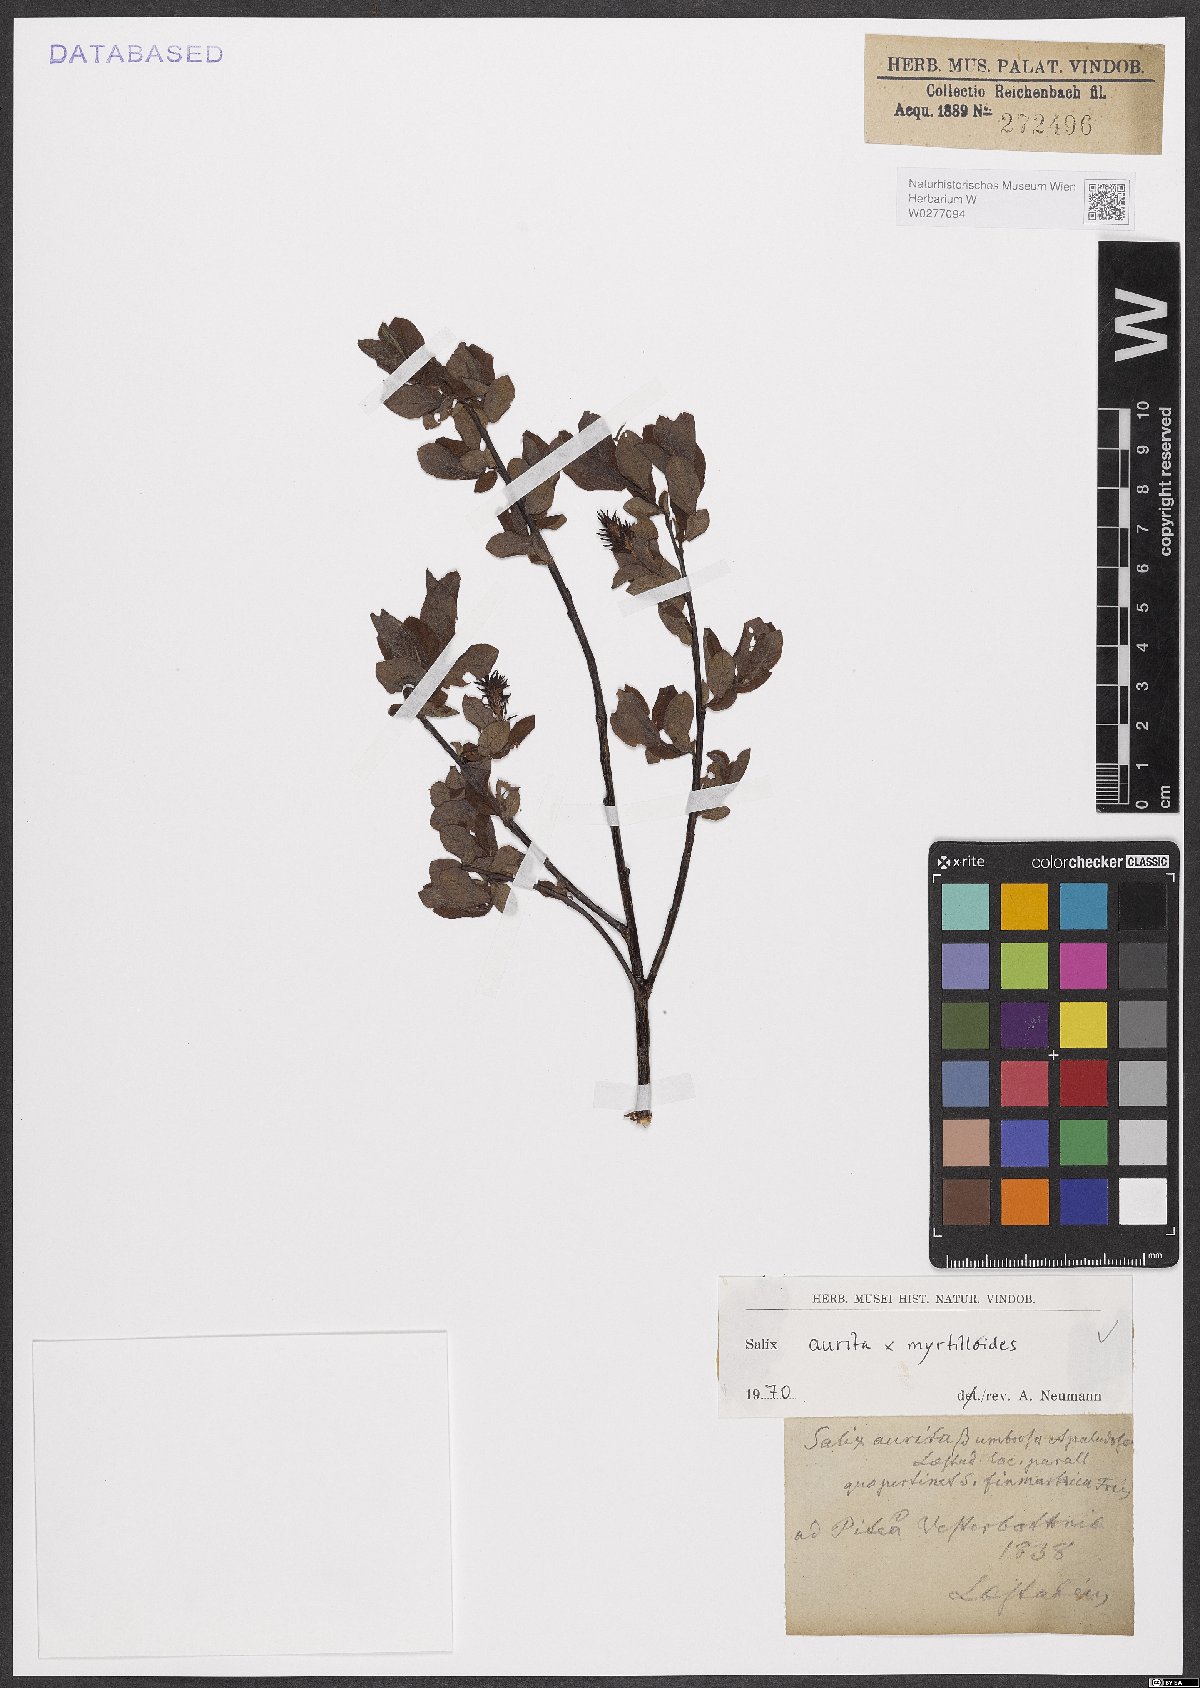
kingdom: Plantae
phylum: Tracheophyta
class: Magnoliopsida
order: Malpighiales
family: Salicaceae
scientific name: Salicaceae
